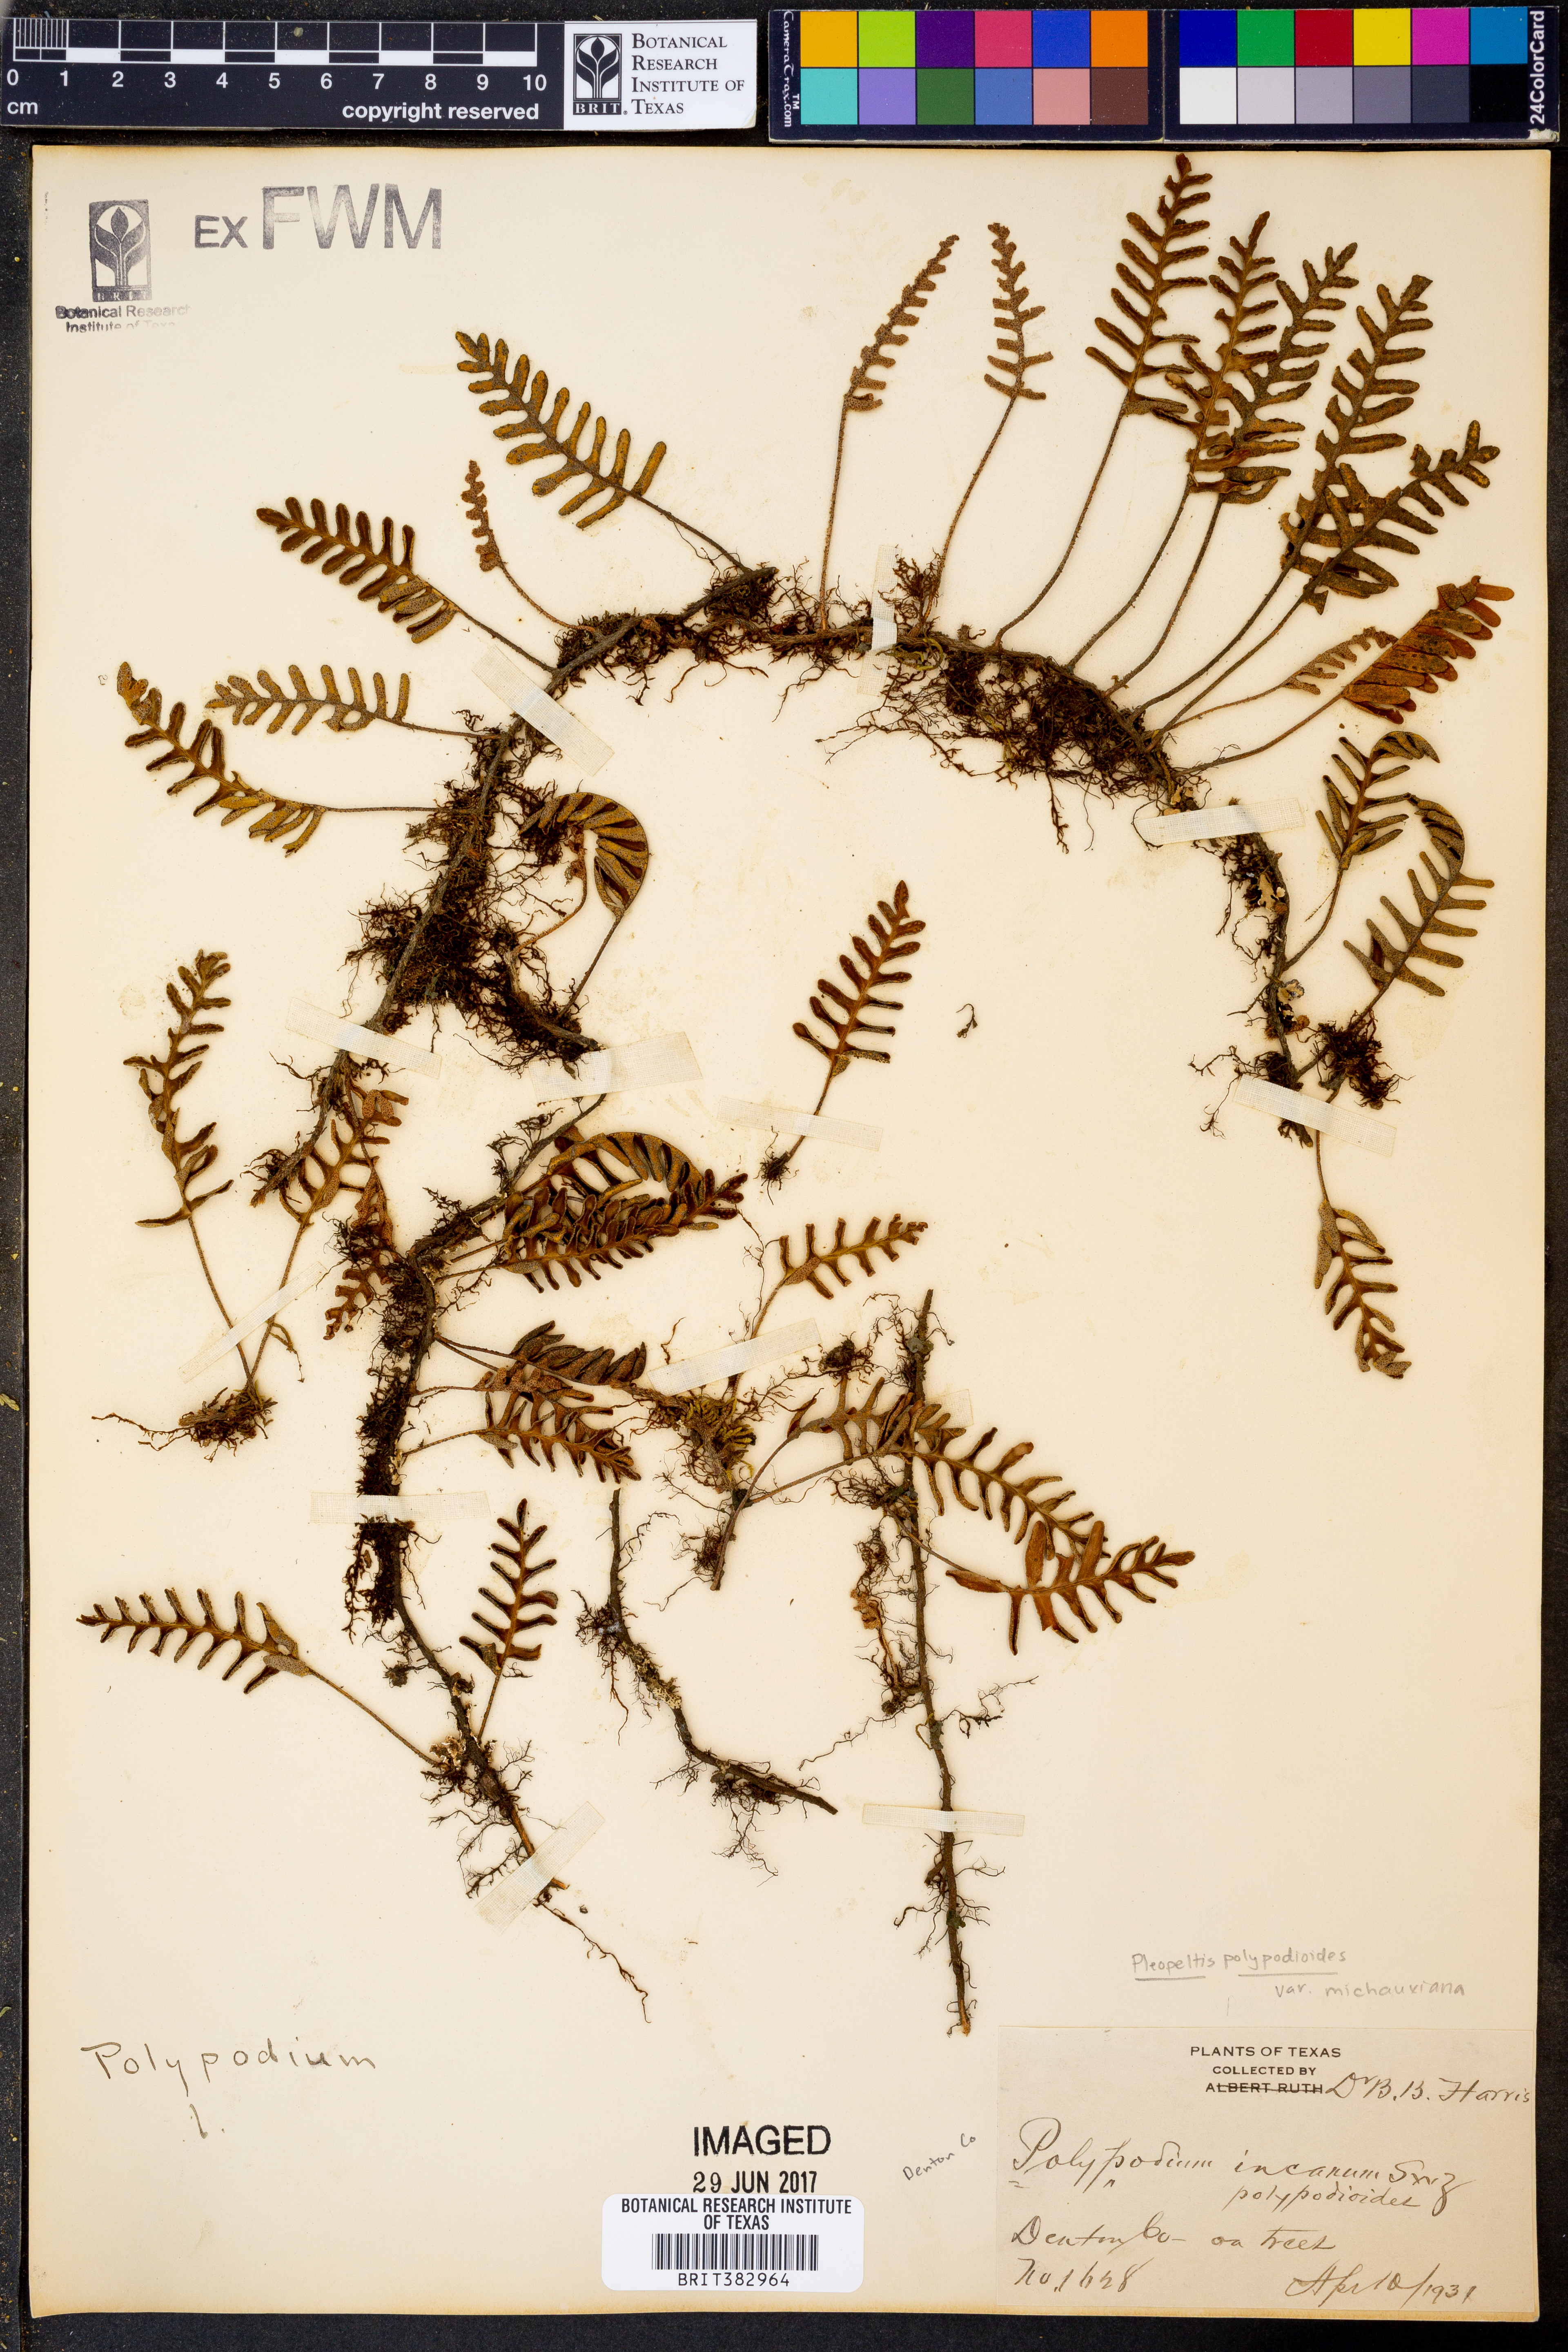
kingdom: Plantae
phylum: Tracheophyta
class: Polypodiopsida
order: Polypodiales
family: Polypodiaceae
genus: Pleopeltis
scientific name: Pleopeltis michauxiana
